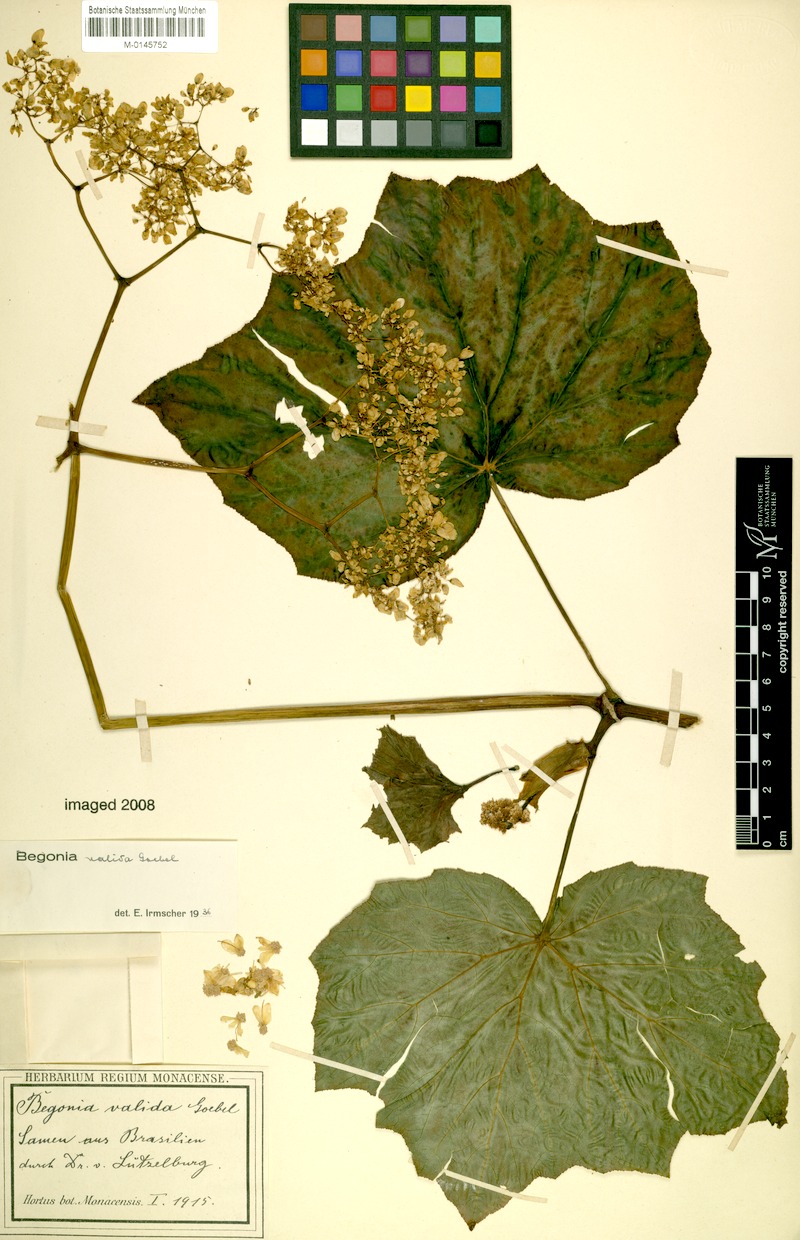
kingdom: Plantae
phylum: Tracheophyta
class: Magnoliopsida
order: Cucurbitales
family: Begoniaceae
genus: Begonia
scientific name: Begonia valida
